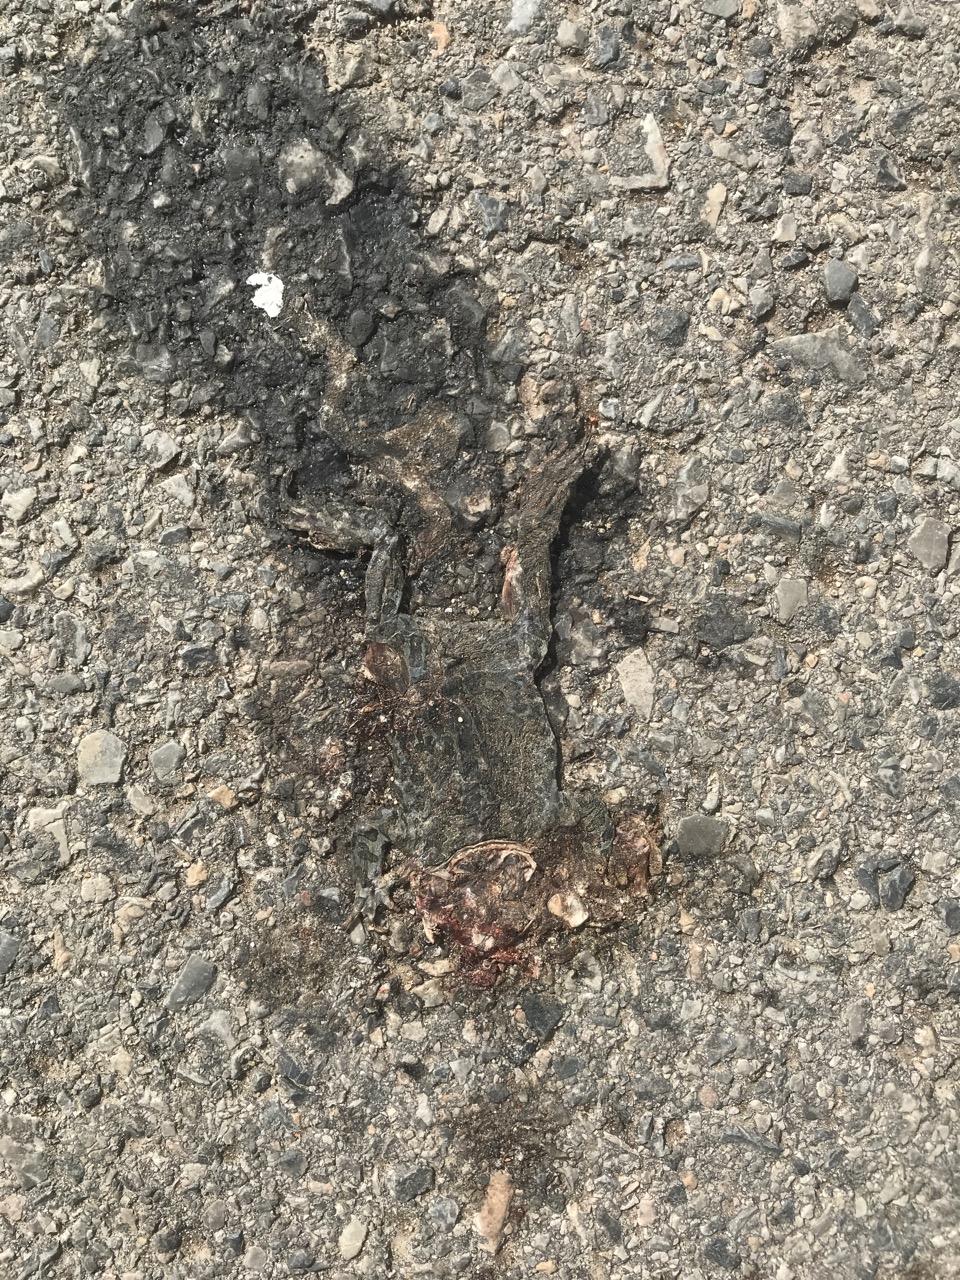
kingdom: Animalia
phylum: Chordata
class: Amphibia
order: Anura
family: Bufonidae
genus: Bufotes
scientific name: Bufotes viridis
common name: European green toad
